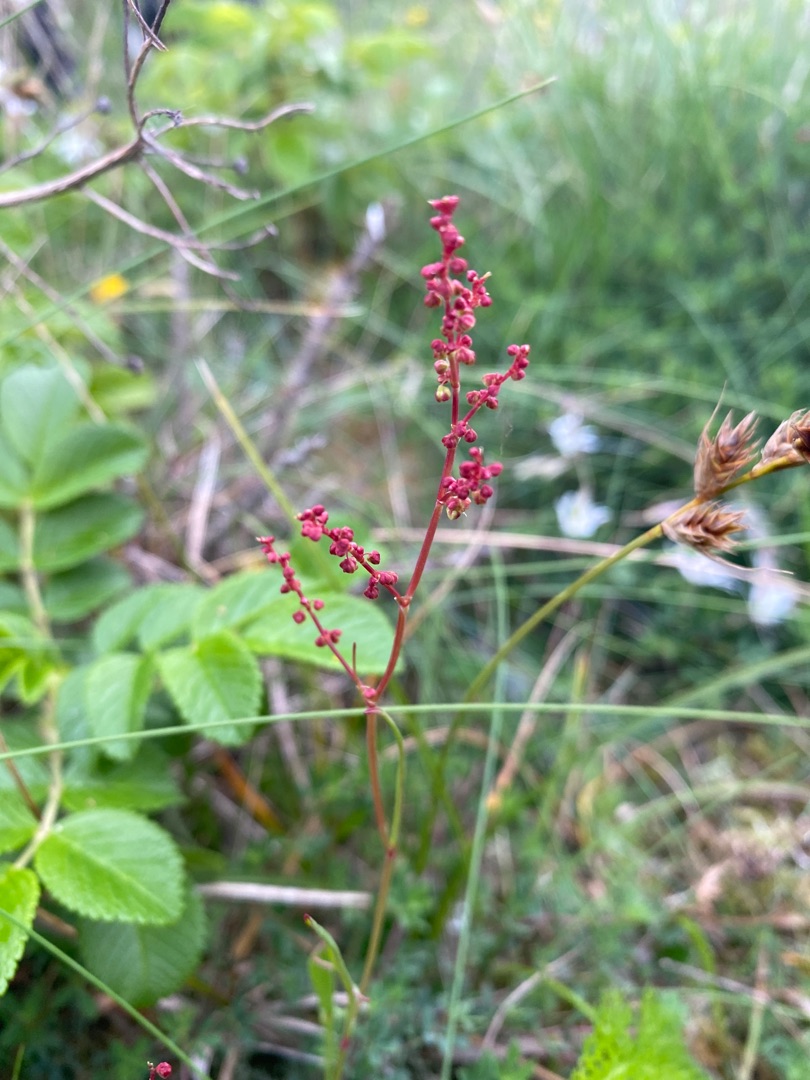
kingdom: Plantae
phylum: Tracheophyta
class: Magnoliopsida
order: Caryophyllales
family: Polygonaceae
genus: Rumex
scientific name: Rumex acetosella
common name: Rødknæ
